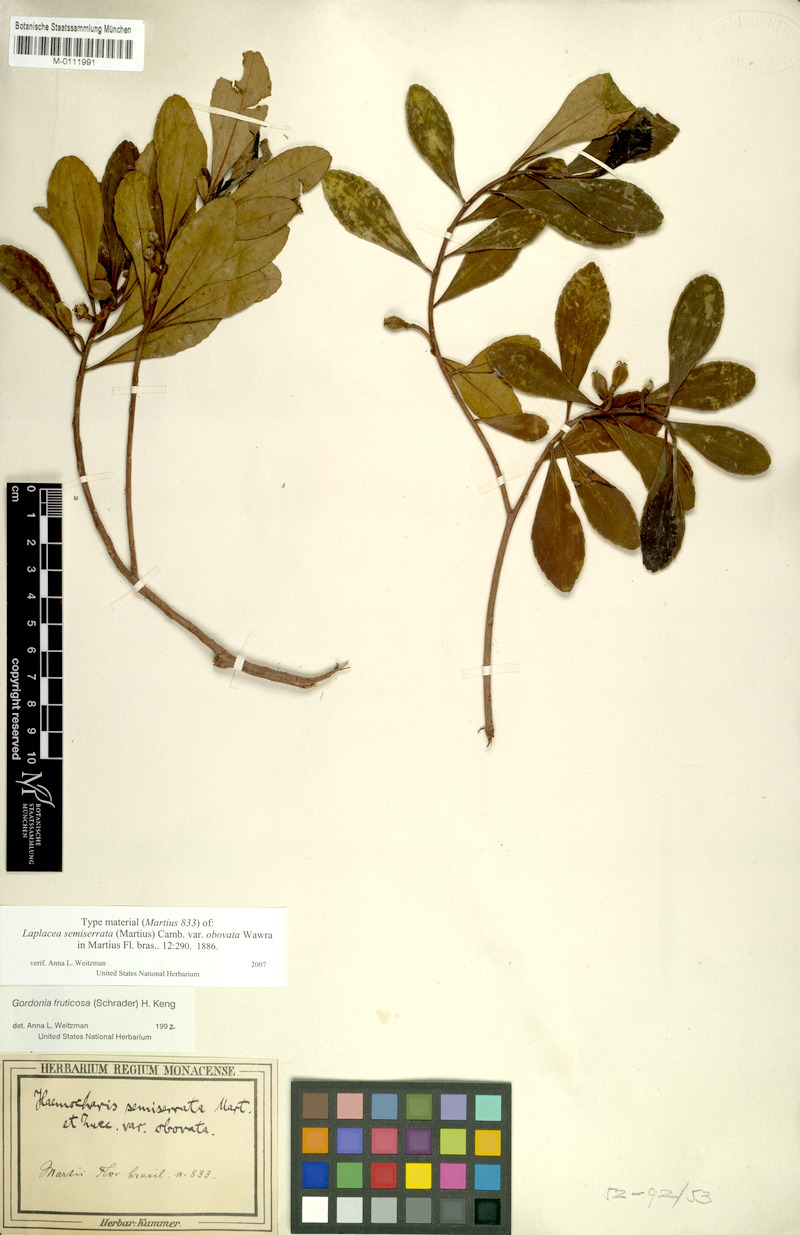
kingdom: Plantae
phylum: Tracheophyta
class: Magnoliopsida
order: Ericales
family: Theaceae
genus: Gordonia
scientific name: Gordonia fruticosa
